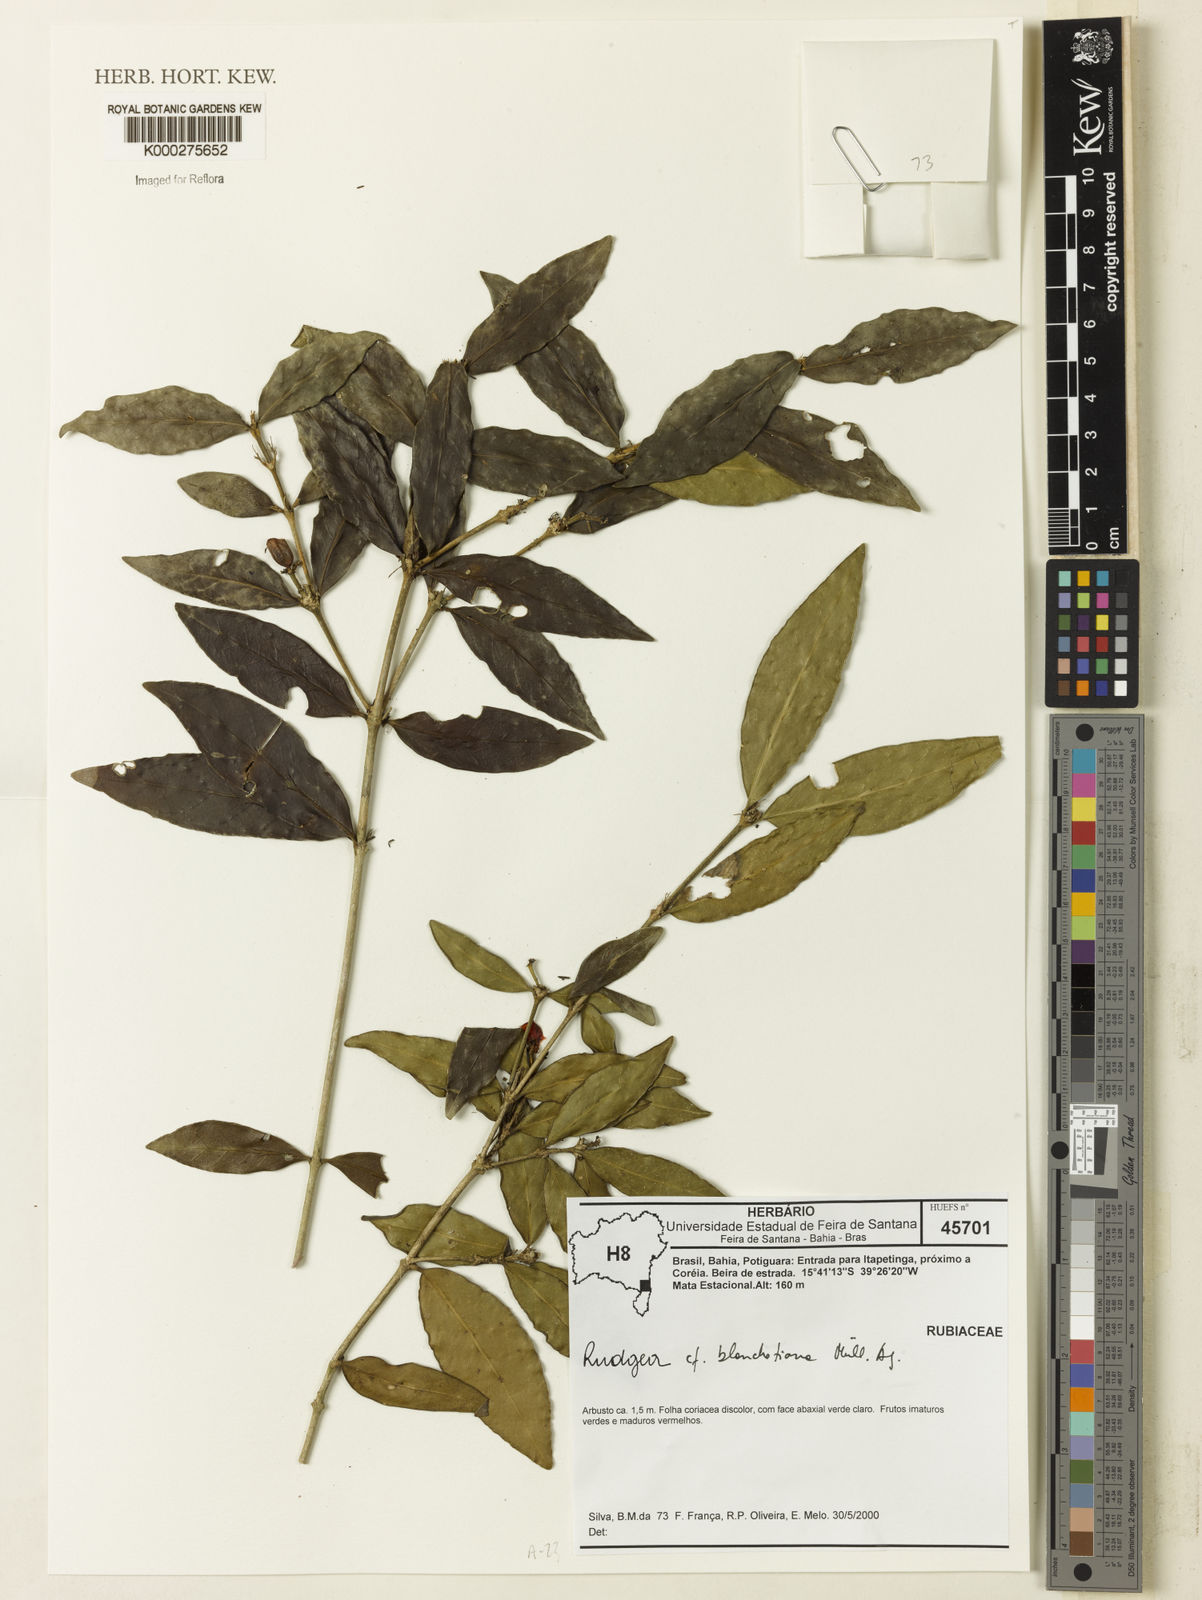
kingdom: Plantae
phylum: Tracheophyta
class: Magnoliopsida
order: Gentianales
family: Rubiaceae
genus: Rudgea
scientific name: Rudgea blanchetiana
